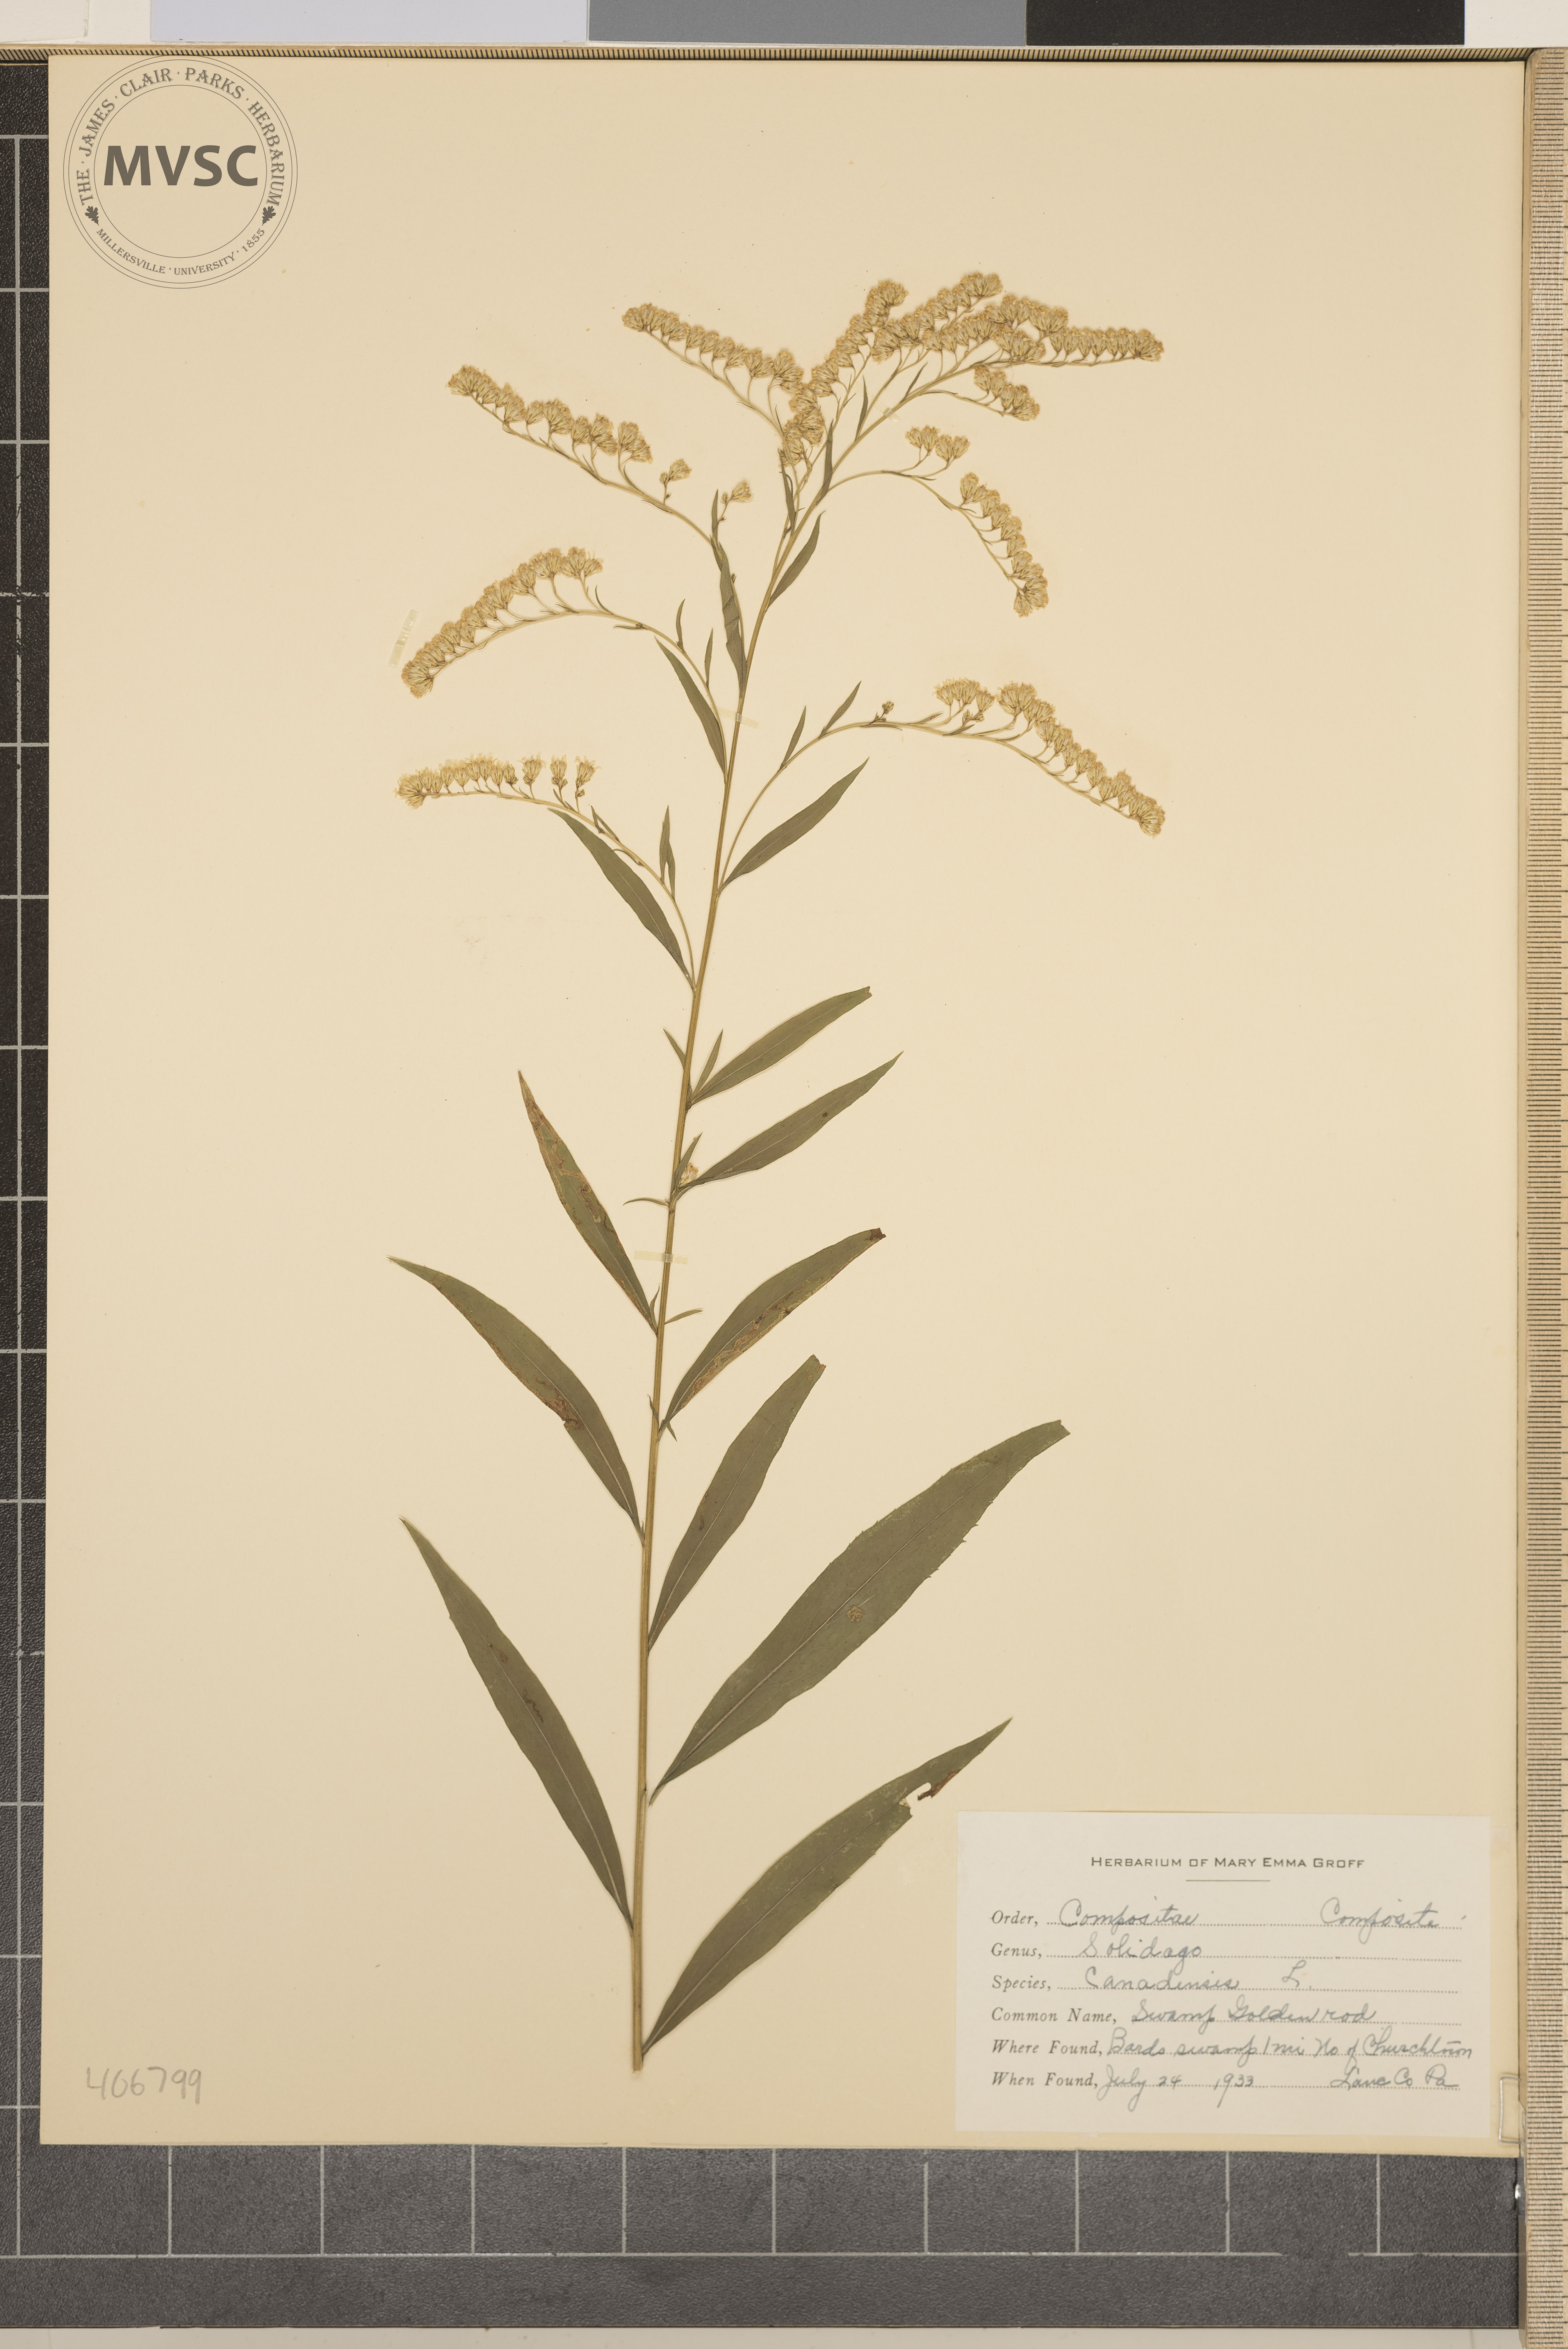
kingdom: Plantae
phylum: Tracheophyta
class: Magnoliopsida
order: Asterales
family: Asteraceae
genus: Solidago
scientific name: Solidago canadensis
